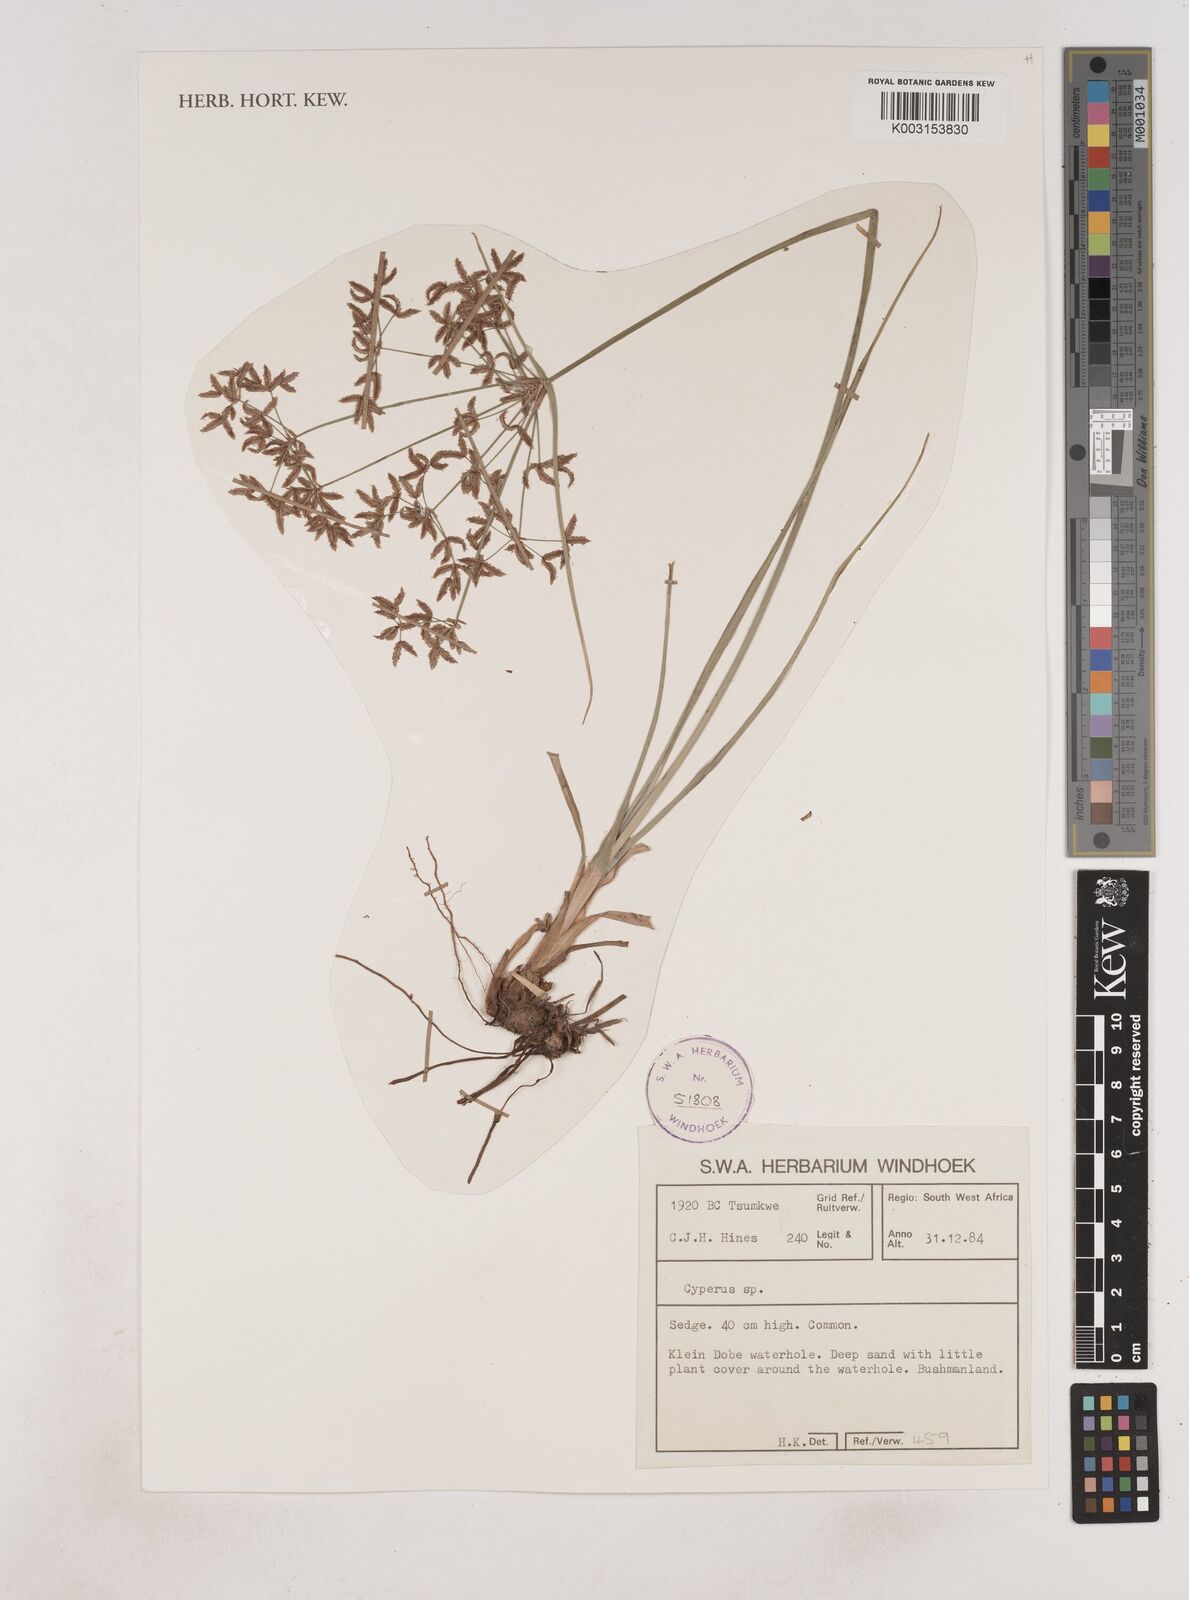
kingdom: Plantae
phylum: Tracheophyta
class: Liliopsida
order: Poales
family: Cyperaceae
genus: Cyperus
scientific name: Cyperus
